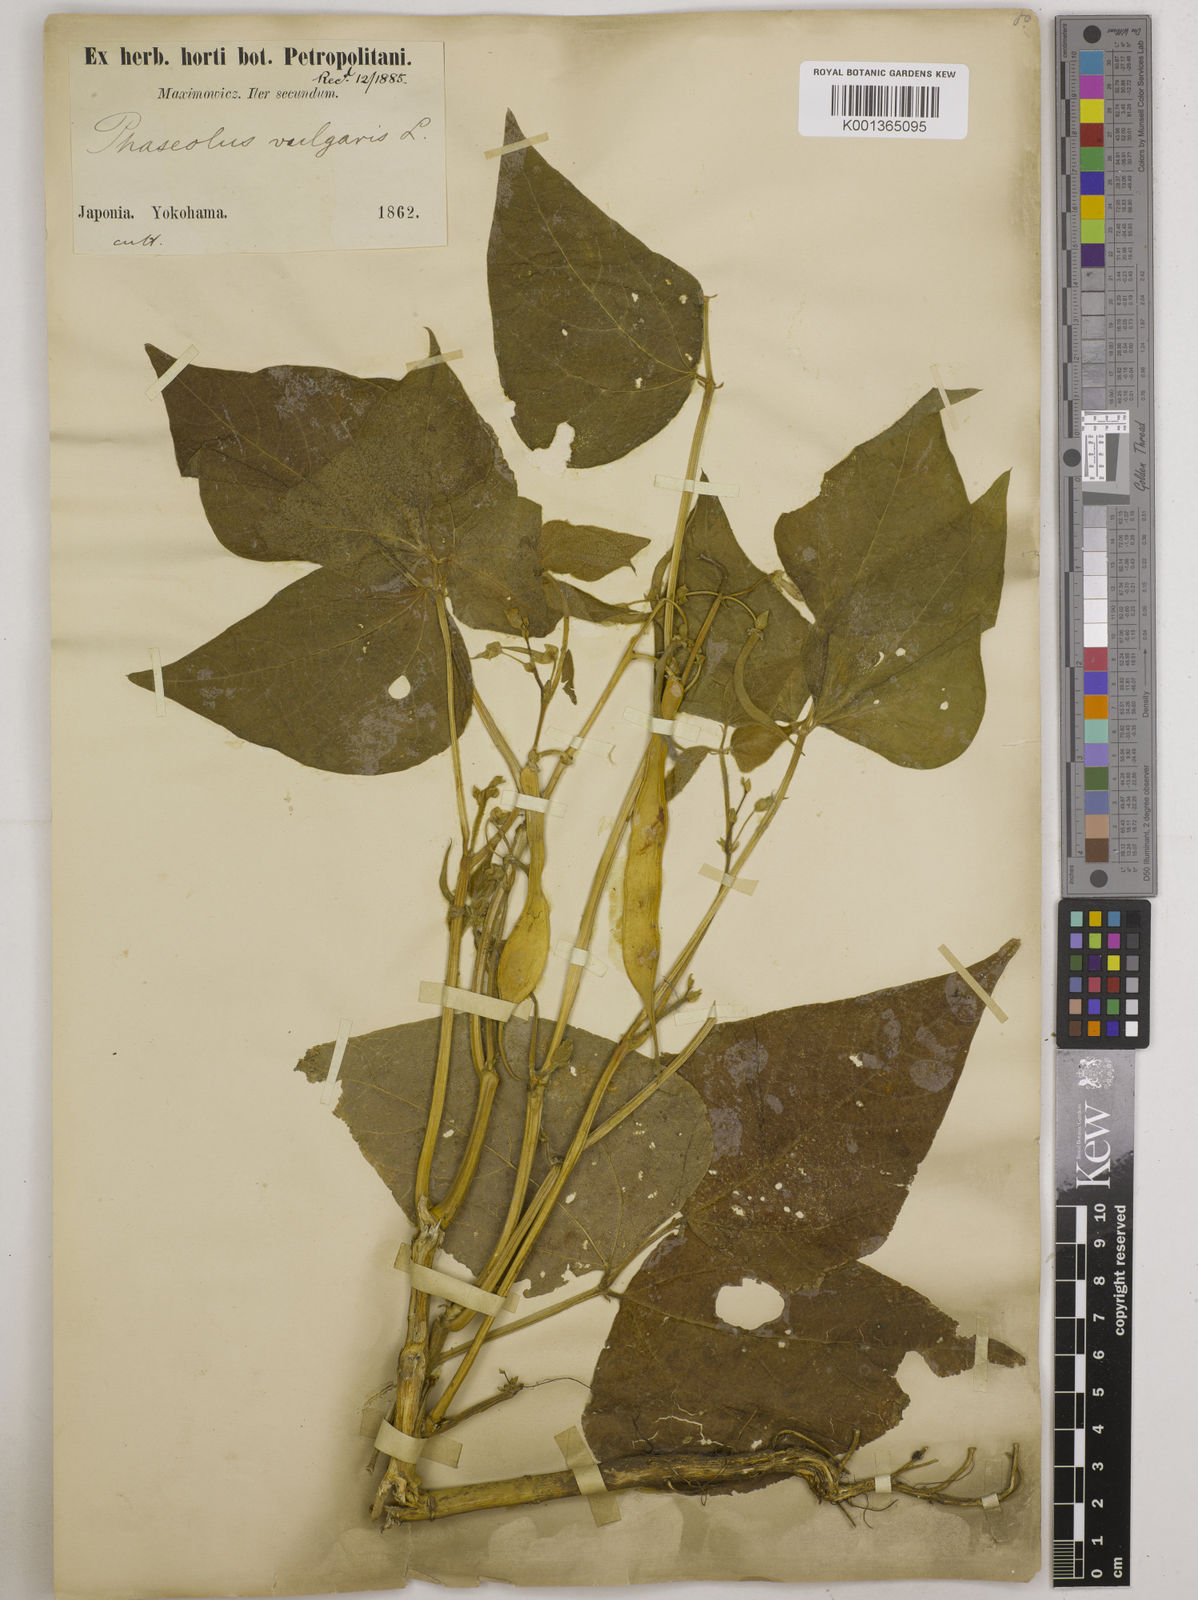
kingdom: Plantae
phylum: Tracheophyta
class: Magnoliopsida
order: Fabales
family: Fabaceae
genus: Phaseolus
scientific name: Phaseolus vulgaris
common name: Bean
